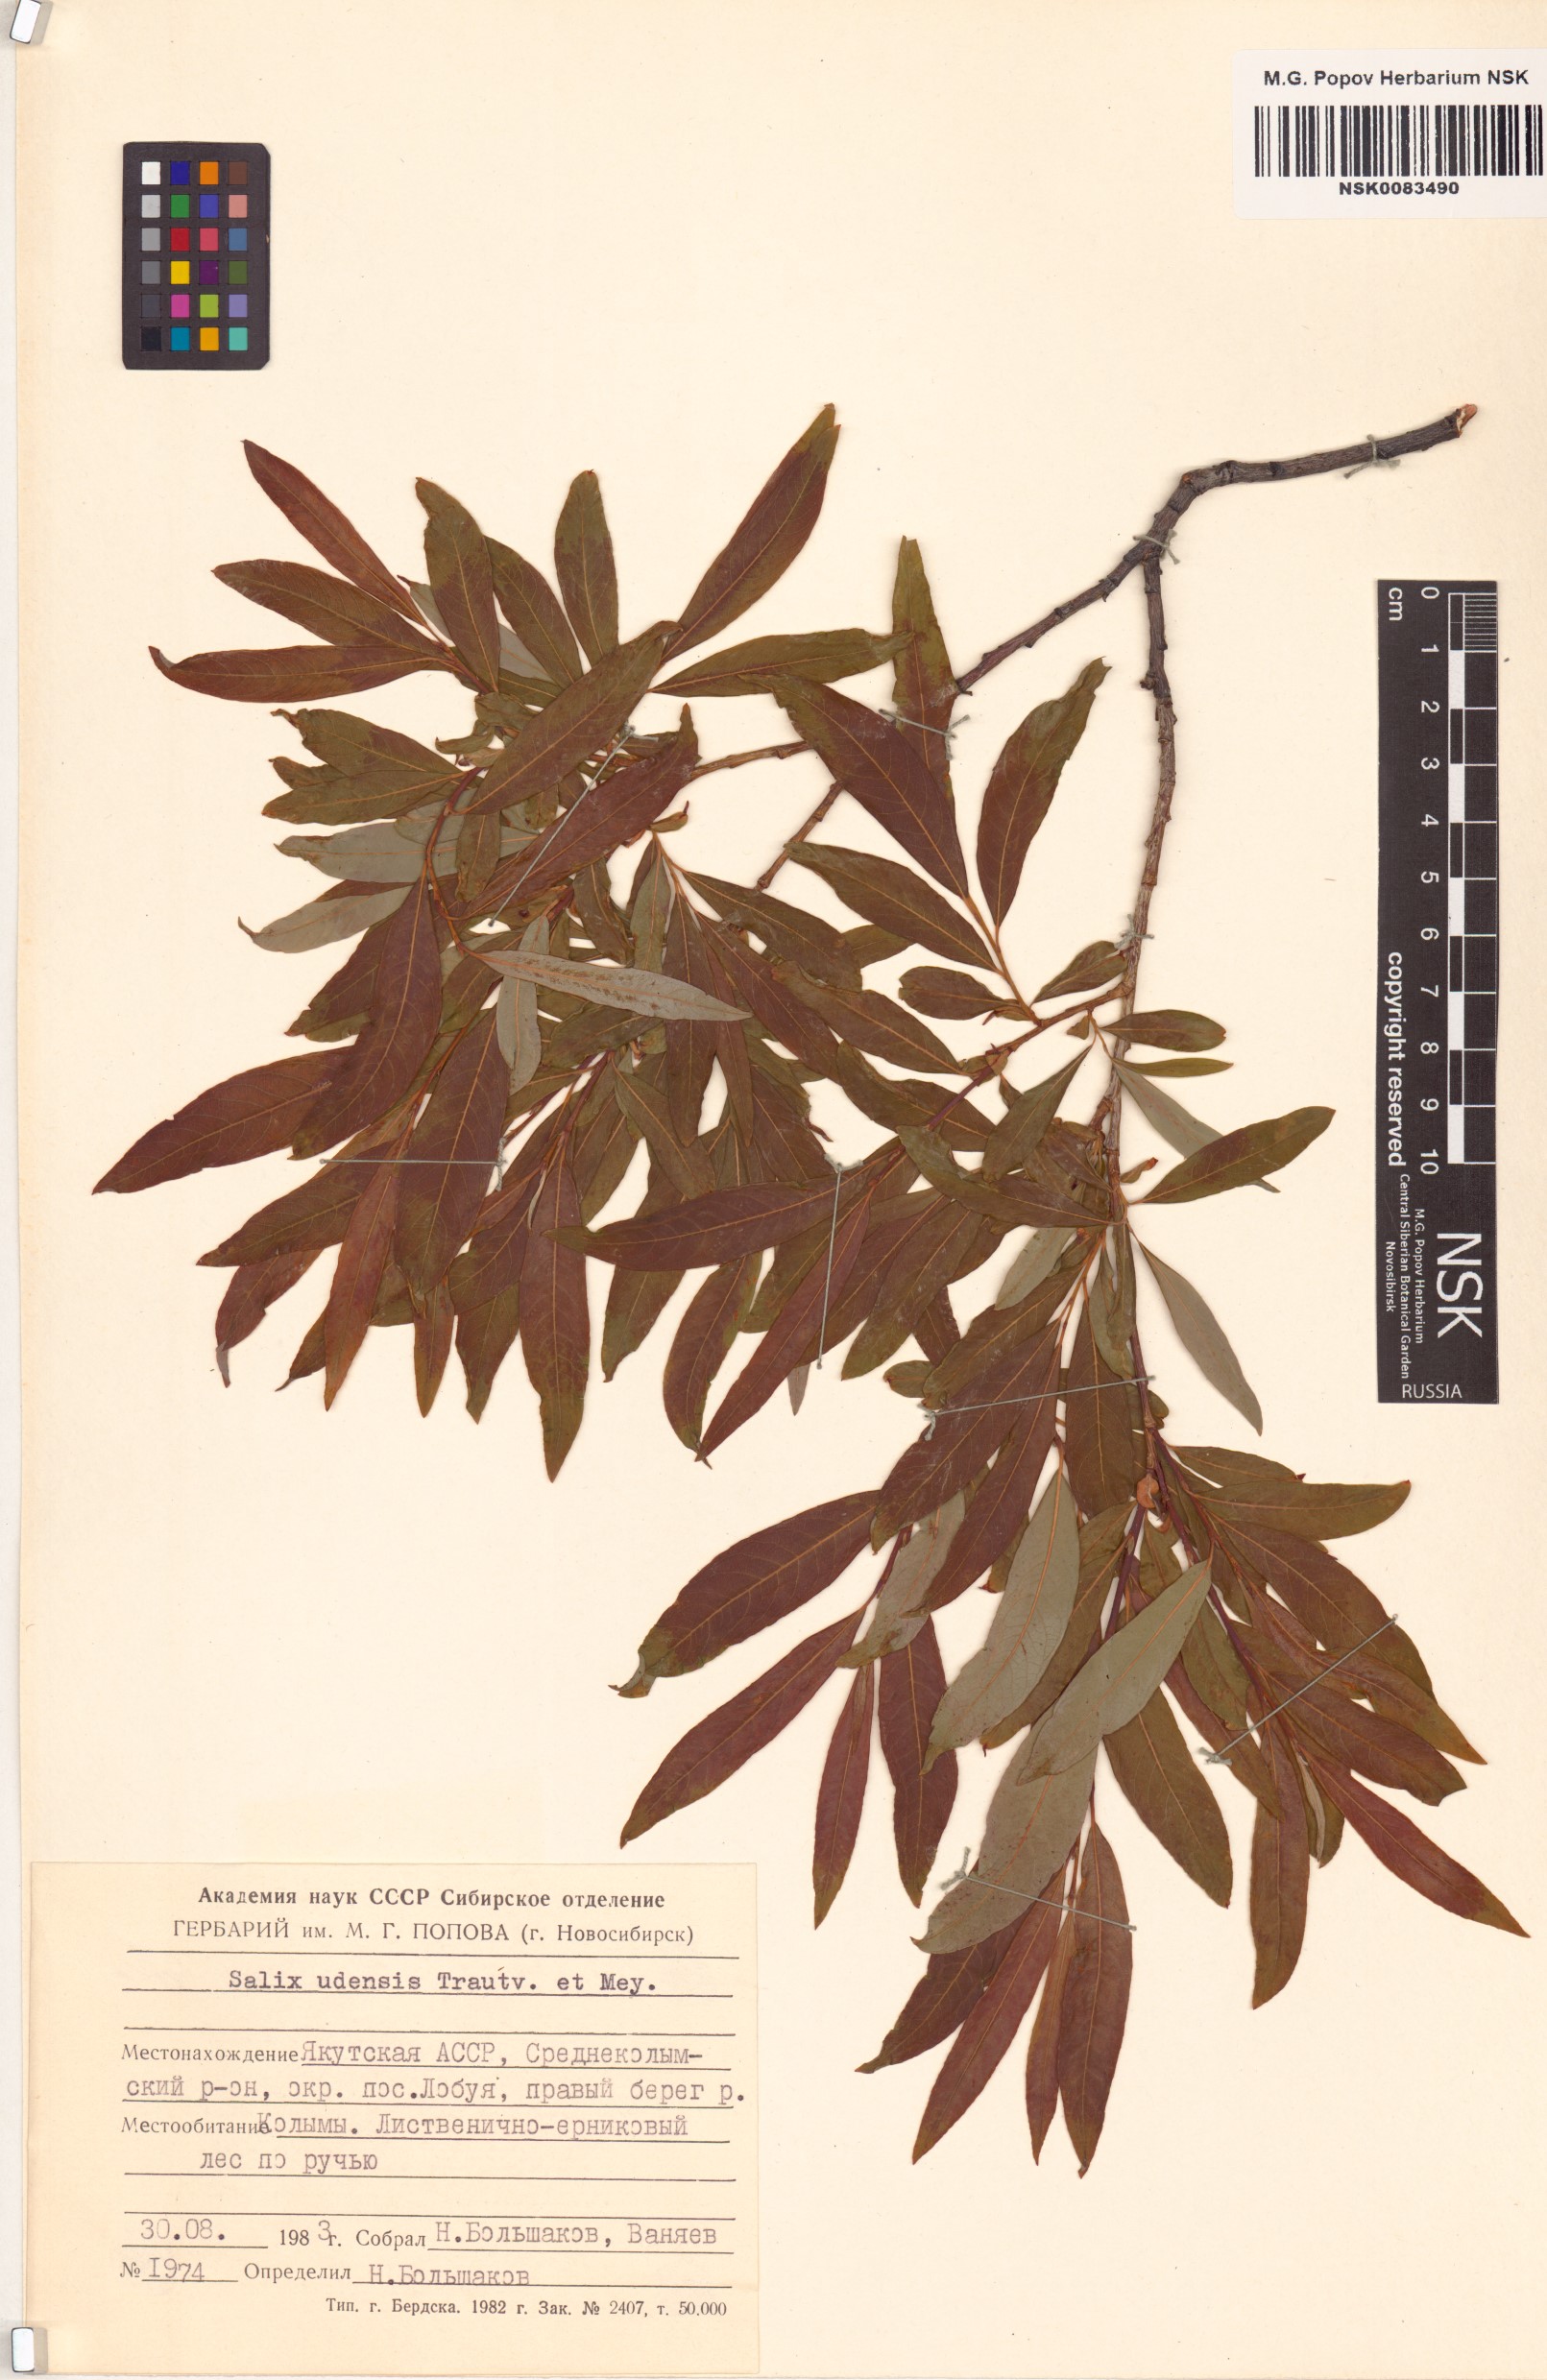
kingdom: Plantae
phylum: Tracheophyta
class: Magnoliopsida
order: Malpighiales
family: Salicaceae
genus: Salix
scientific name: Salix udensis
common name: Sachalin willow
